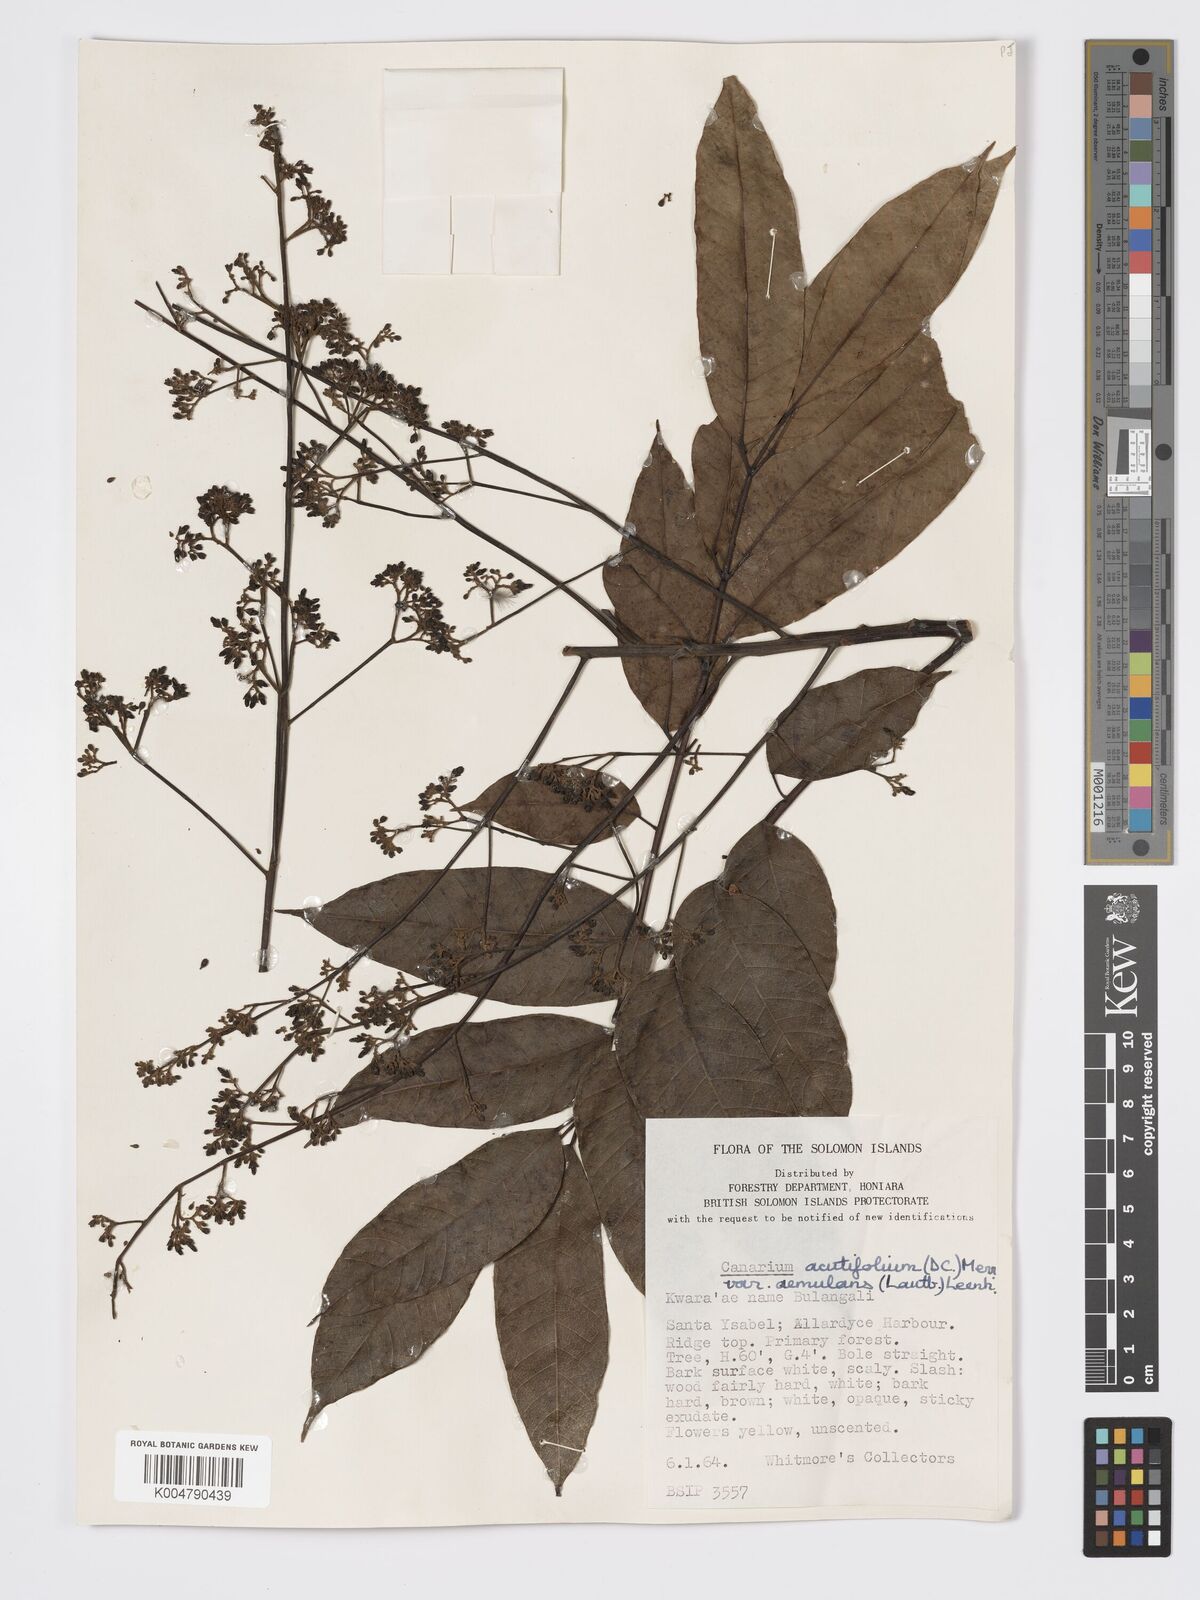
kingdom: Plantae
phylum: Tracheophyta
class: Magnoliopsida
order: Sapindales
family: Burseraceae
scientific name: Burseraceae
